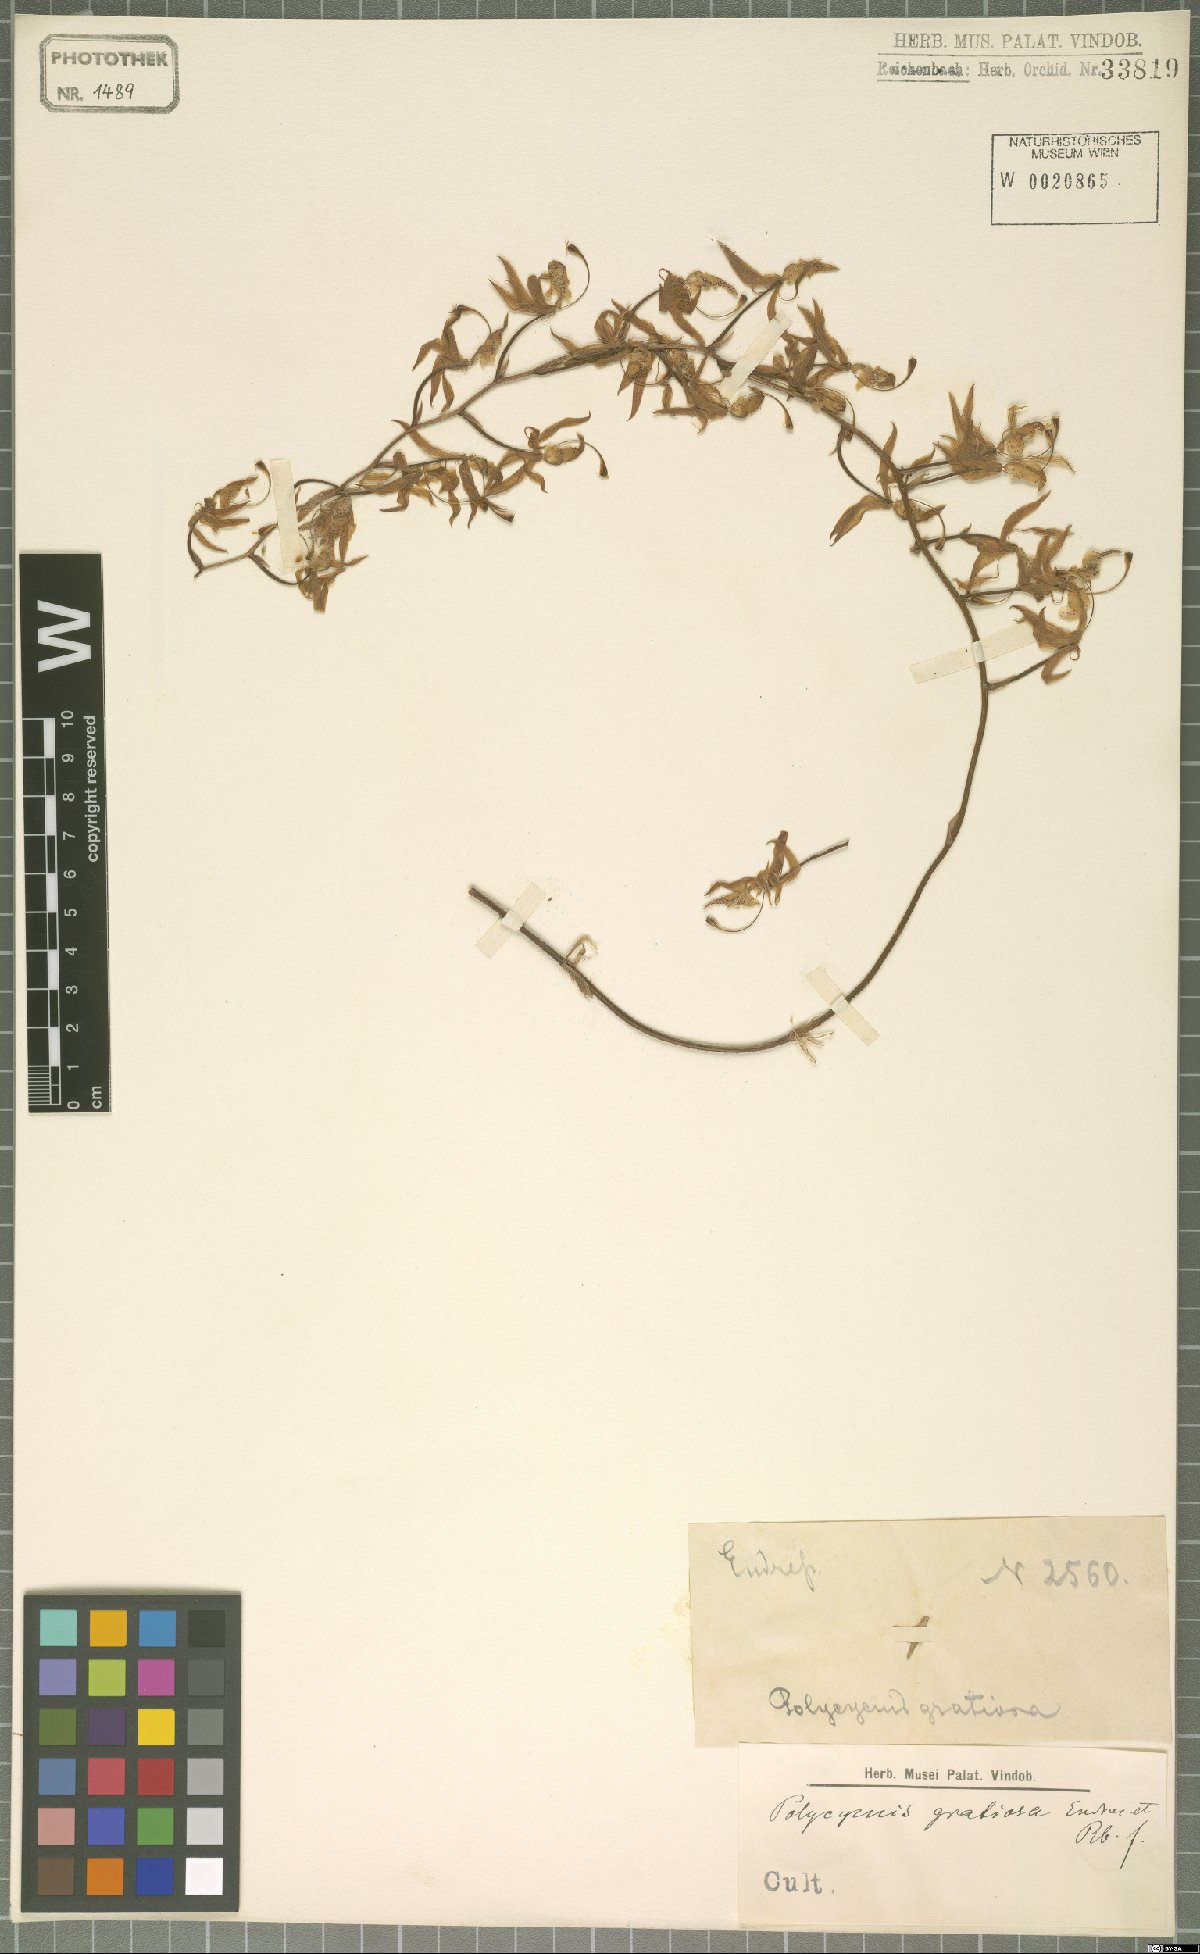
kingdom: Plantae
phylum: Tracheophyta
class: Liliopsida
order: Asparagales
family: Orchidaceae
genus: Polycycnis
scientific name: Polycycnis lepida
